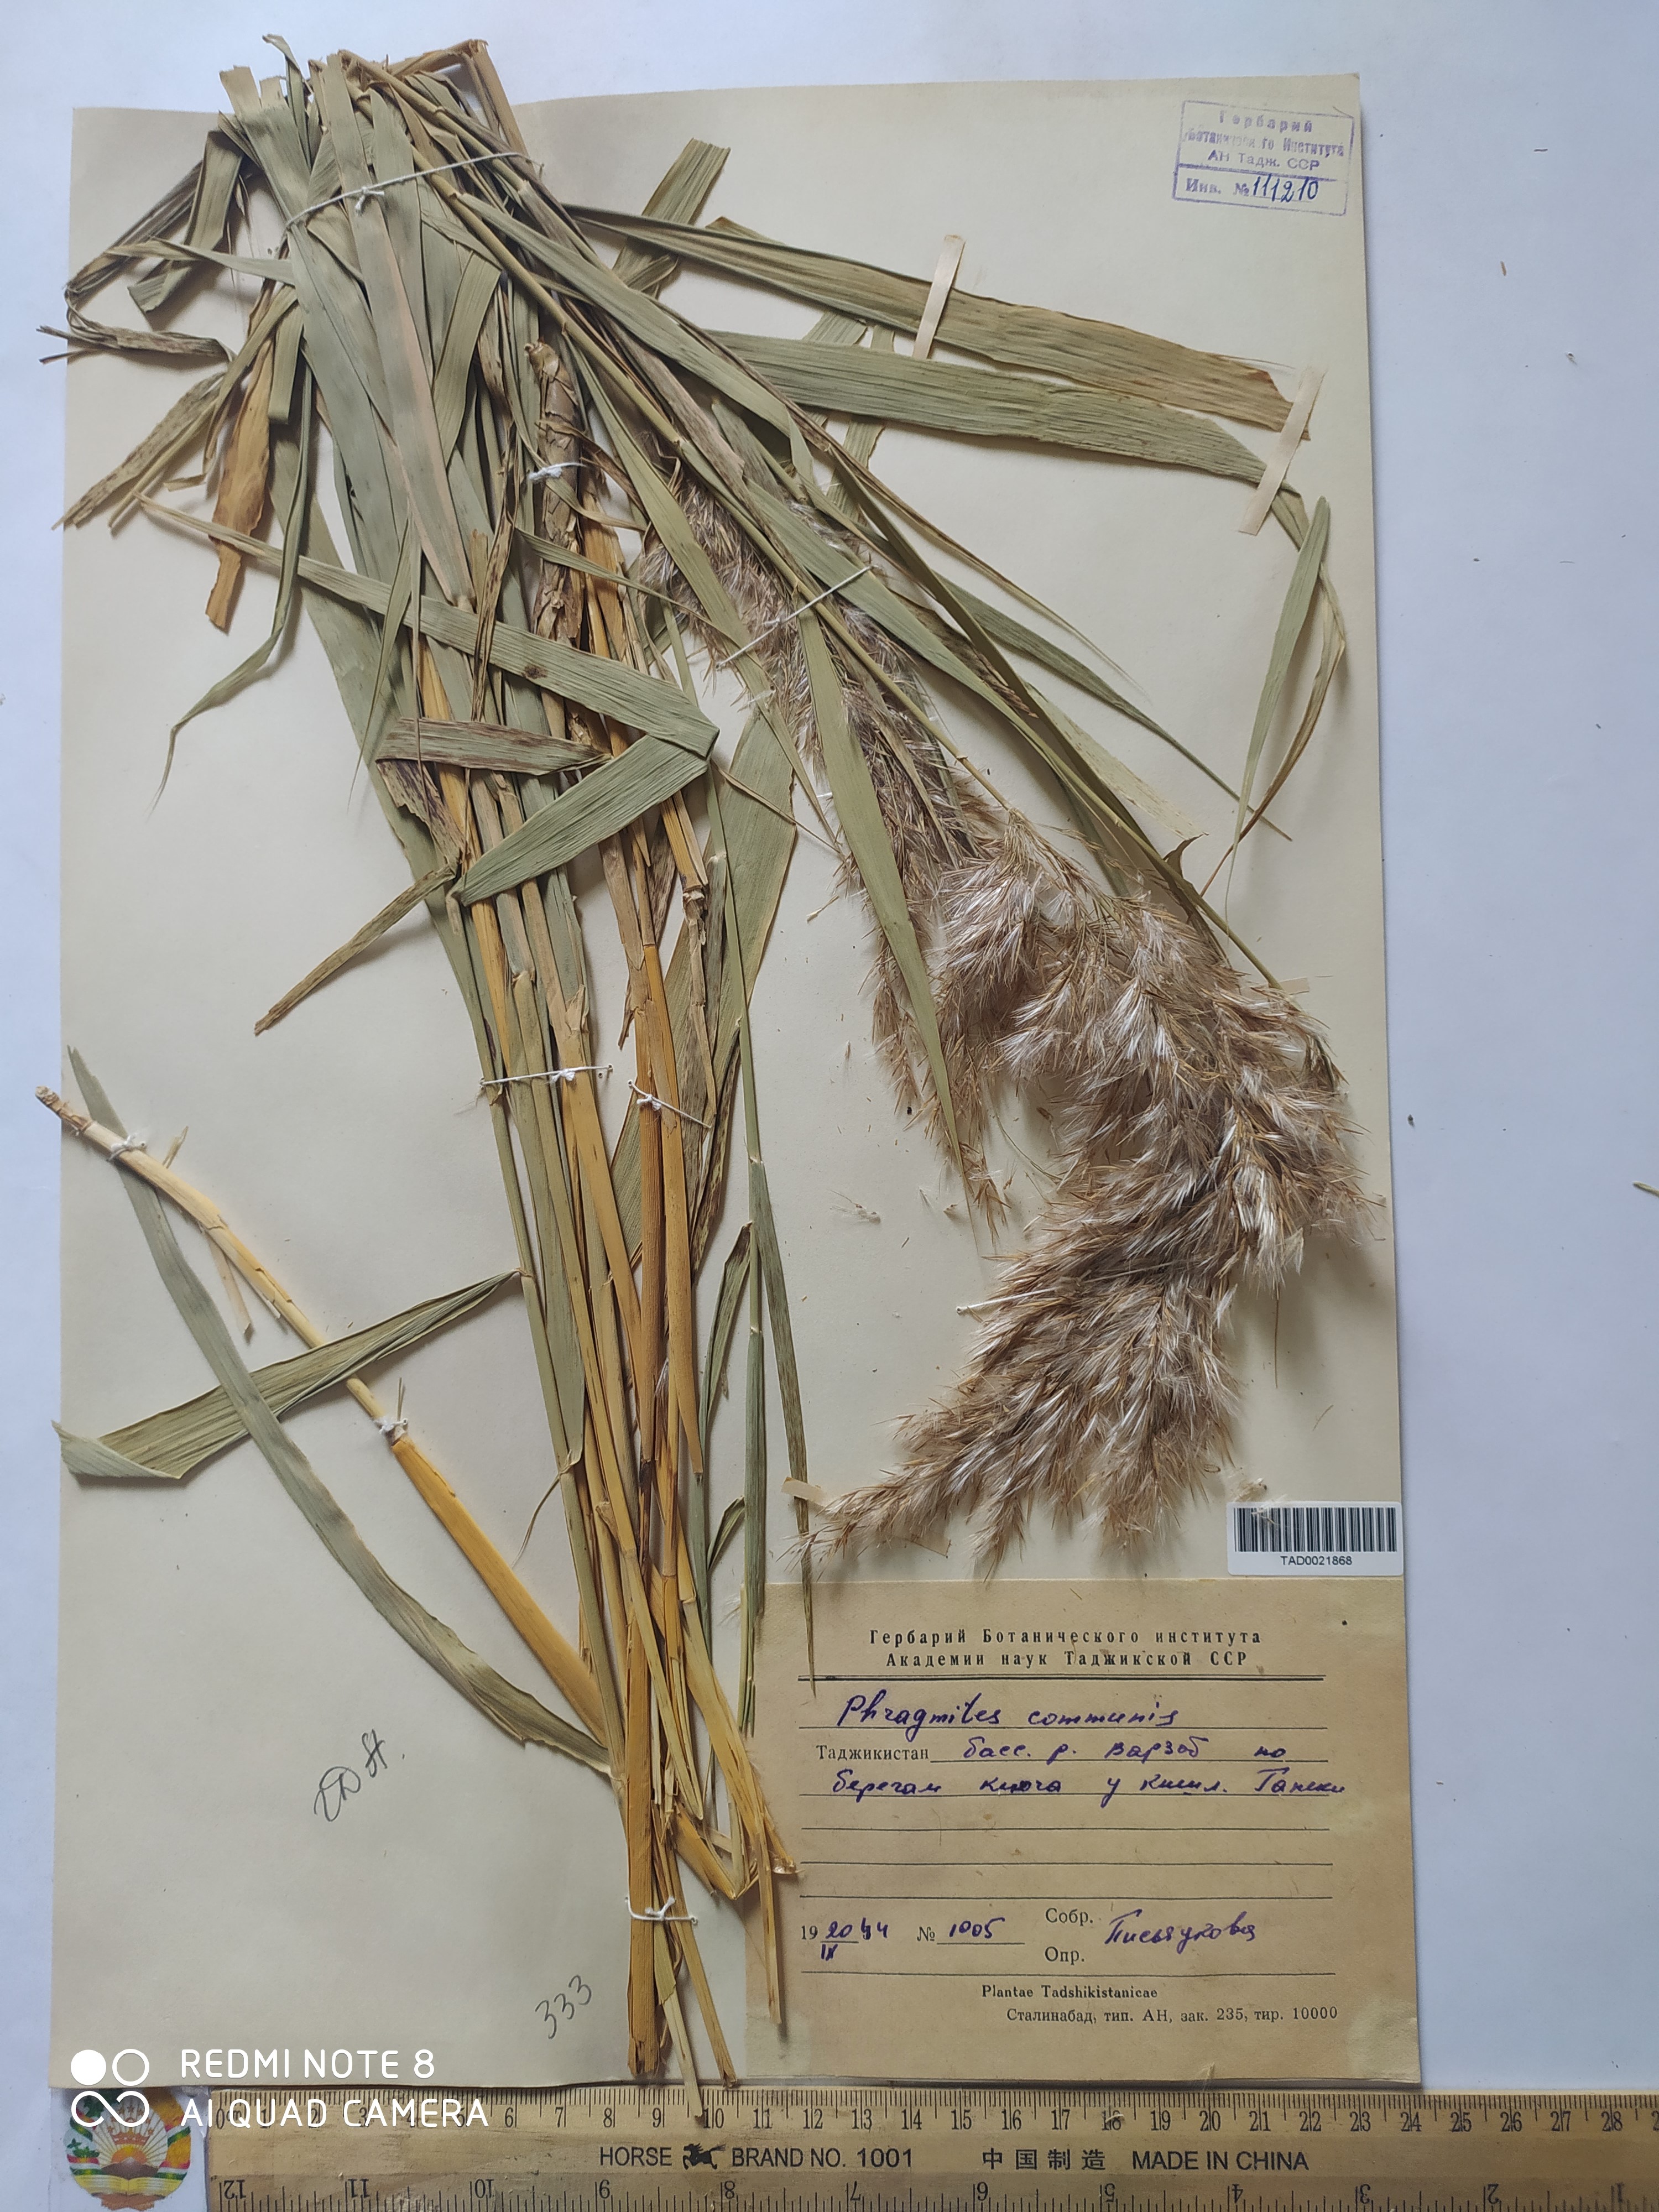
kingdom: Plantae
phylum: Tracheophyta
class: Liliopsida
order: Poales
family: Poaceae
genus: Phragmites
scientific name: Phragmites australis
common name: Common reed
